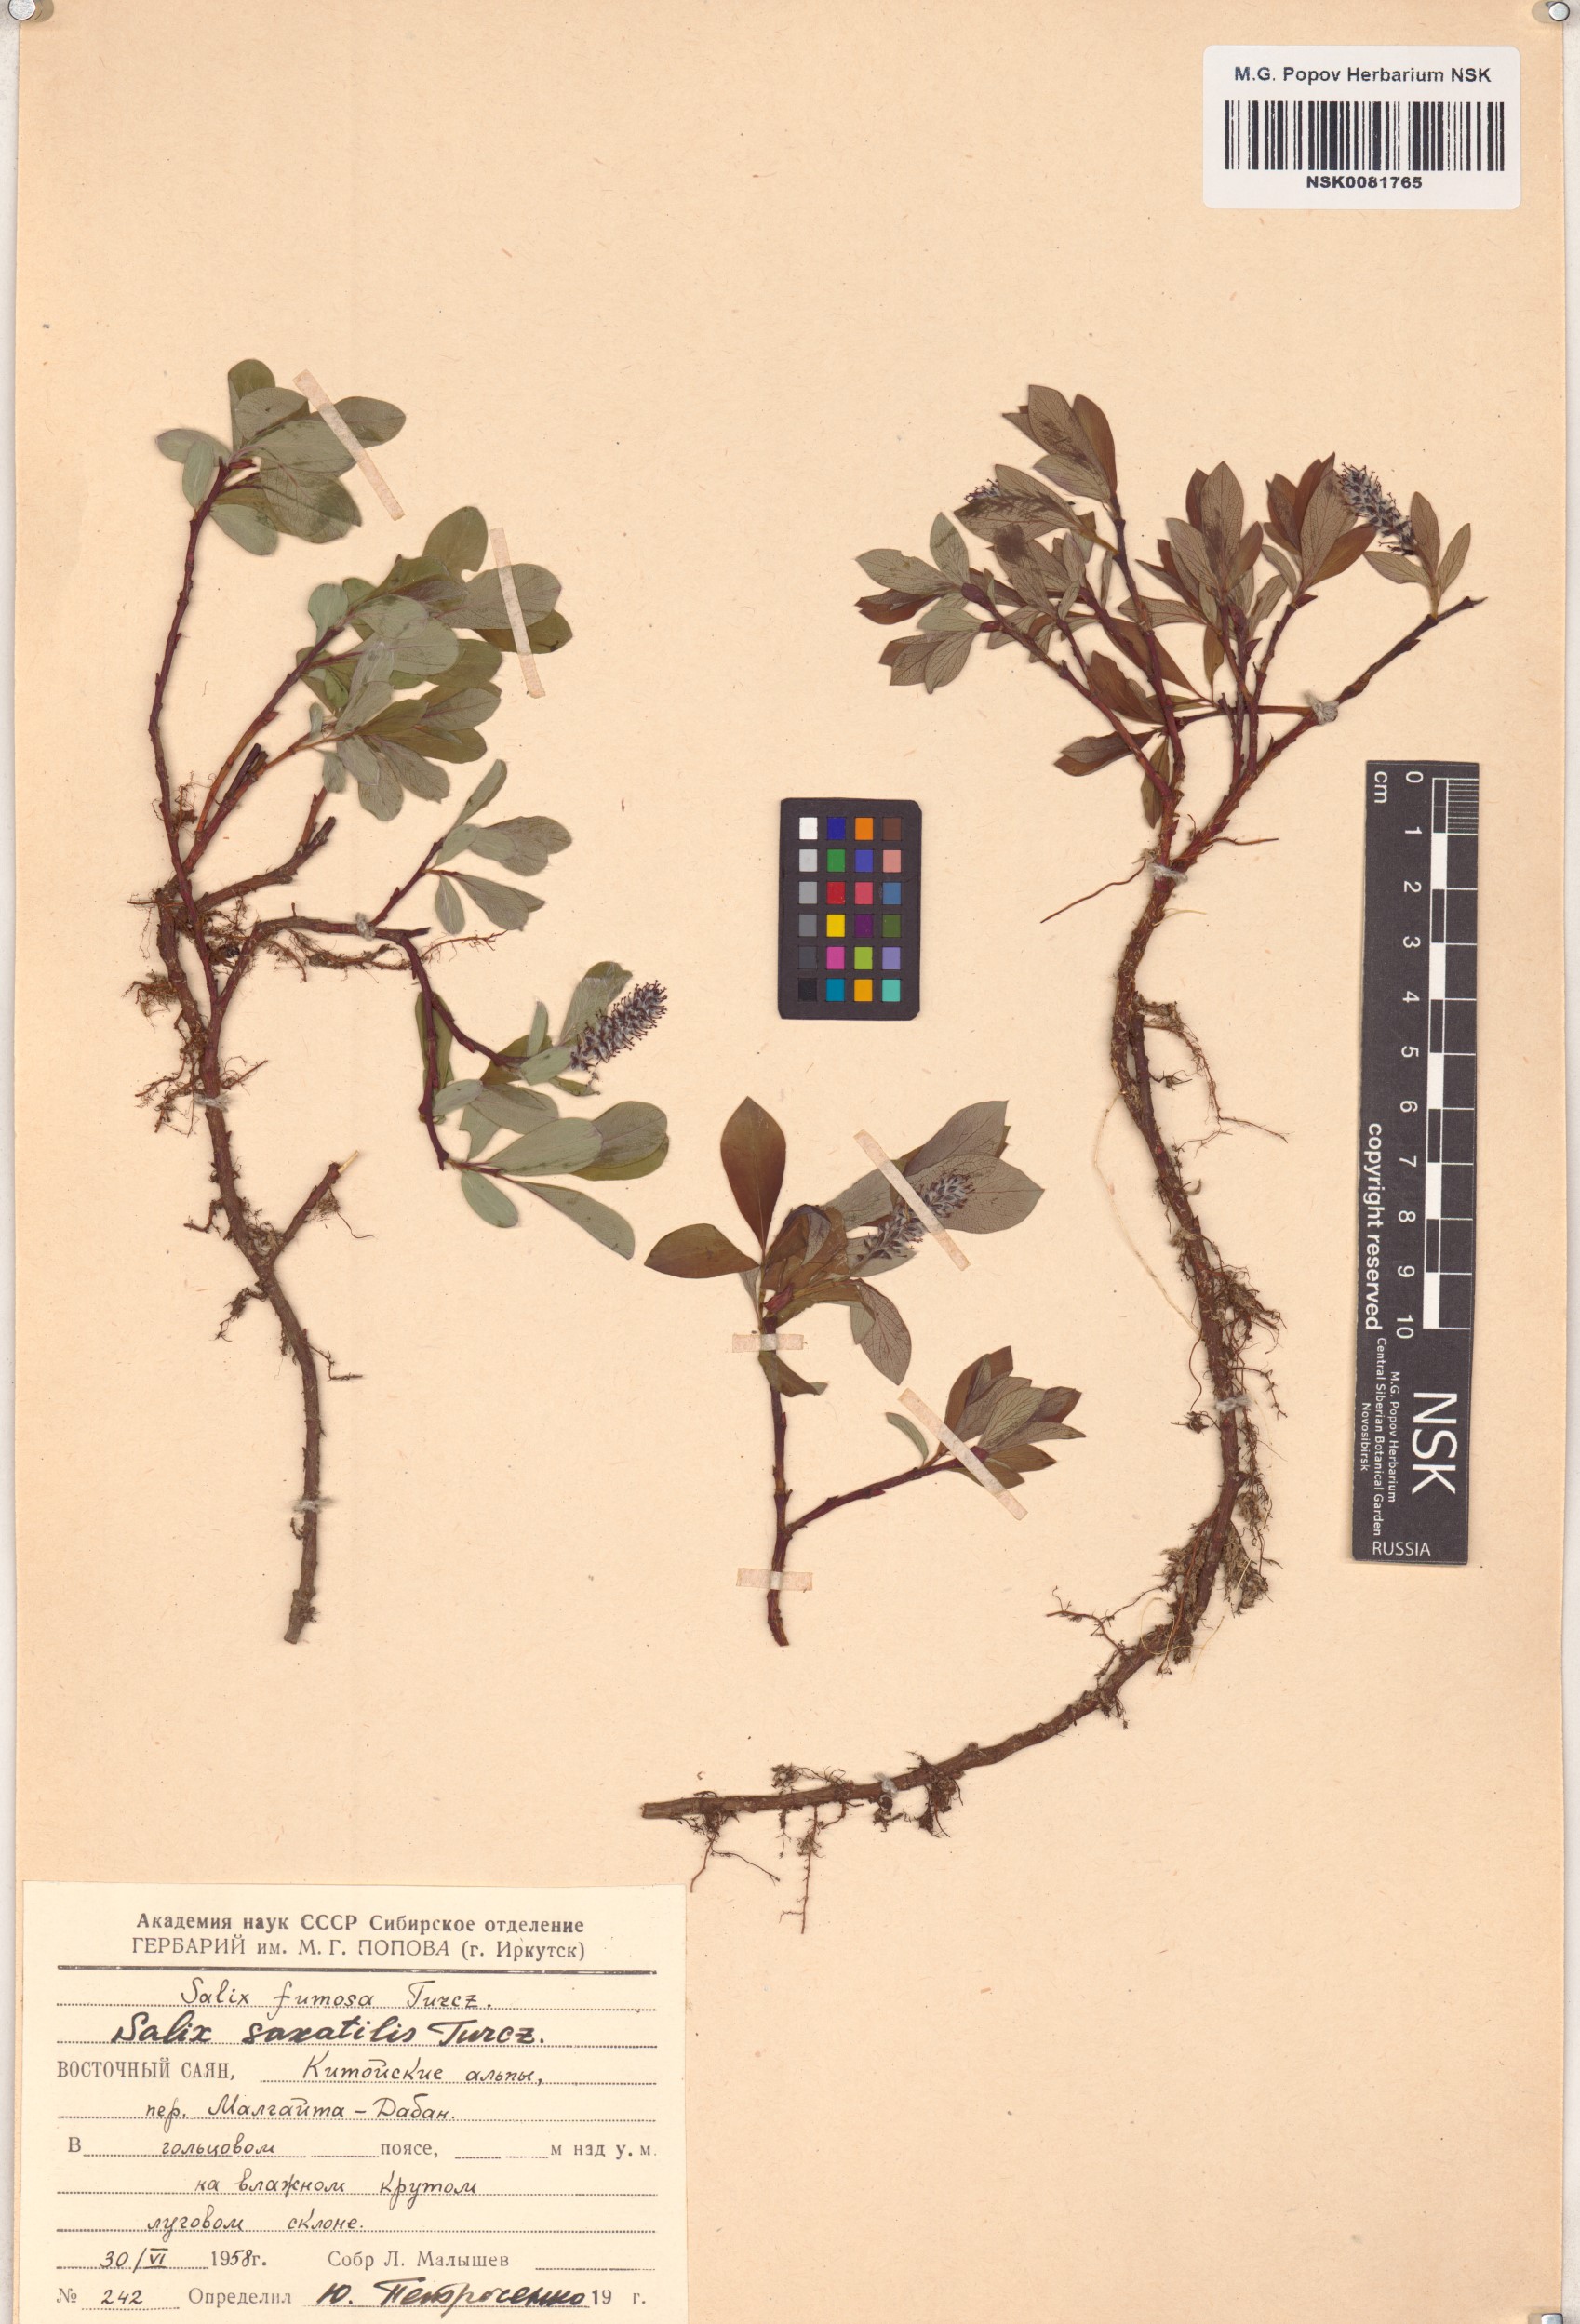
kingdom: Plantae
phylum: Tracheophyta
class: Magnoliopsida
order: Malpighiales
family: Salicaceae
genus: Salix
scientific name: Salix saxatilis
